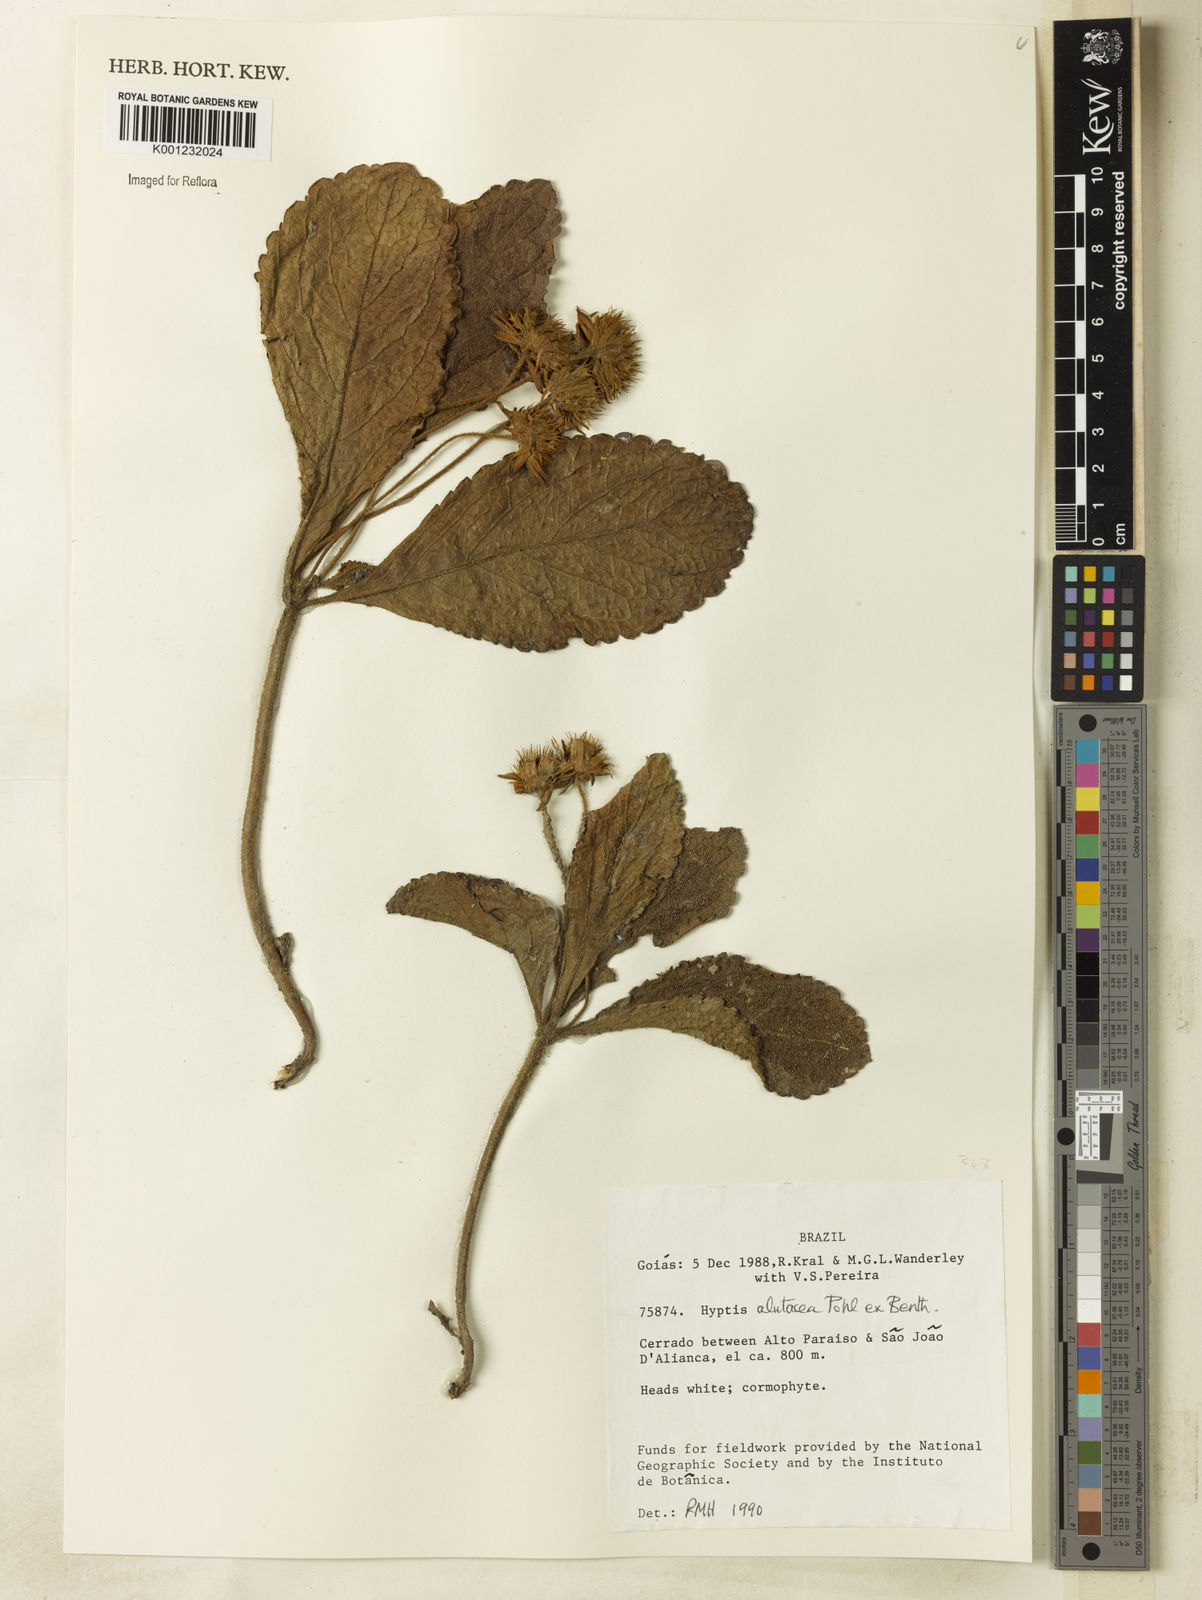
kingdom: Plantae
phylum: Tracheophyta
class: Magnoliopsida
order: Lamiales
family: Lamiaceae
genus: Hyptis
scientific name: Hyptis alutacea
